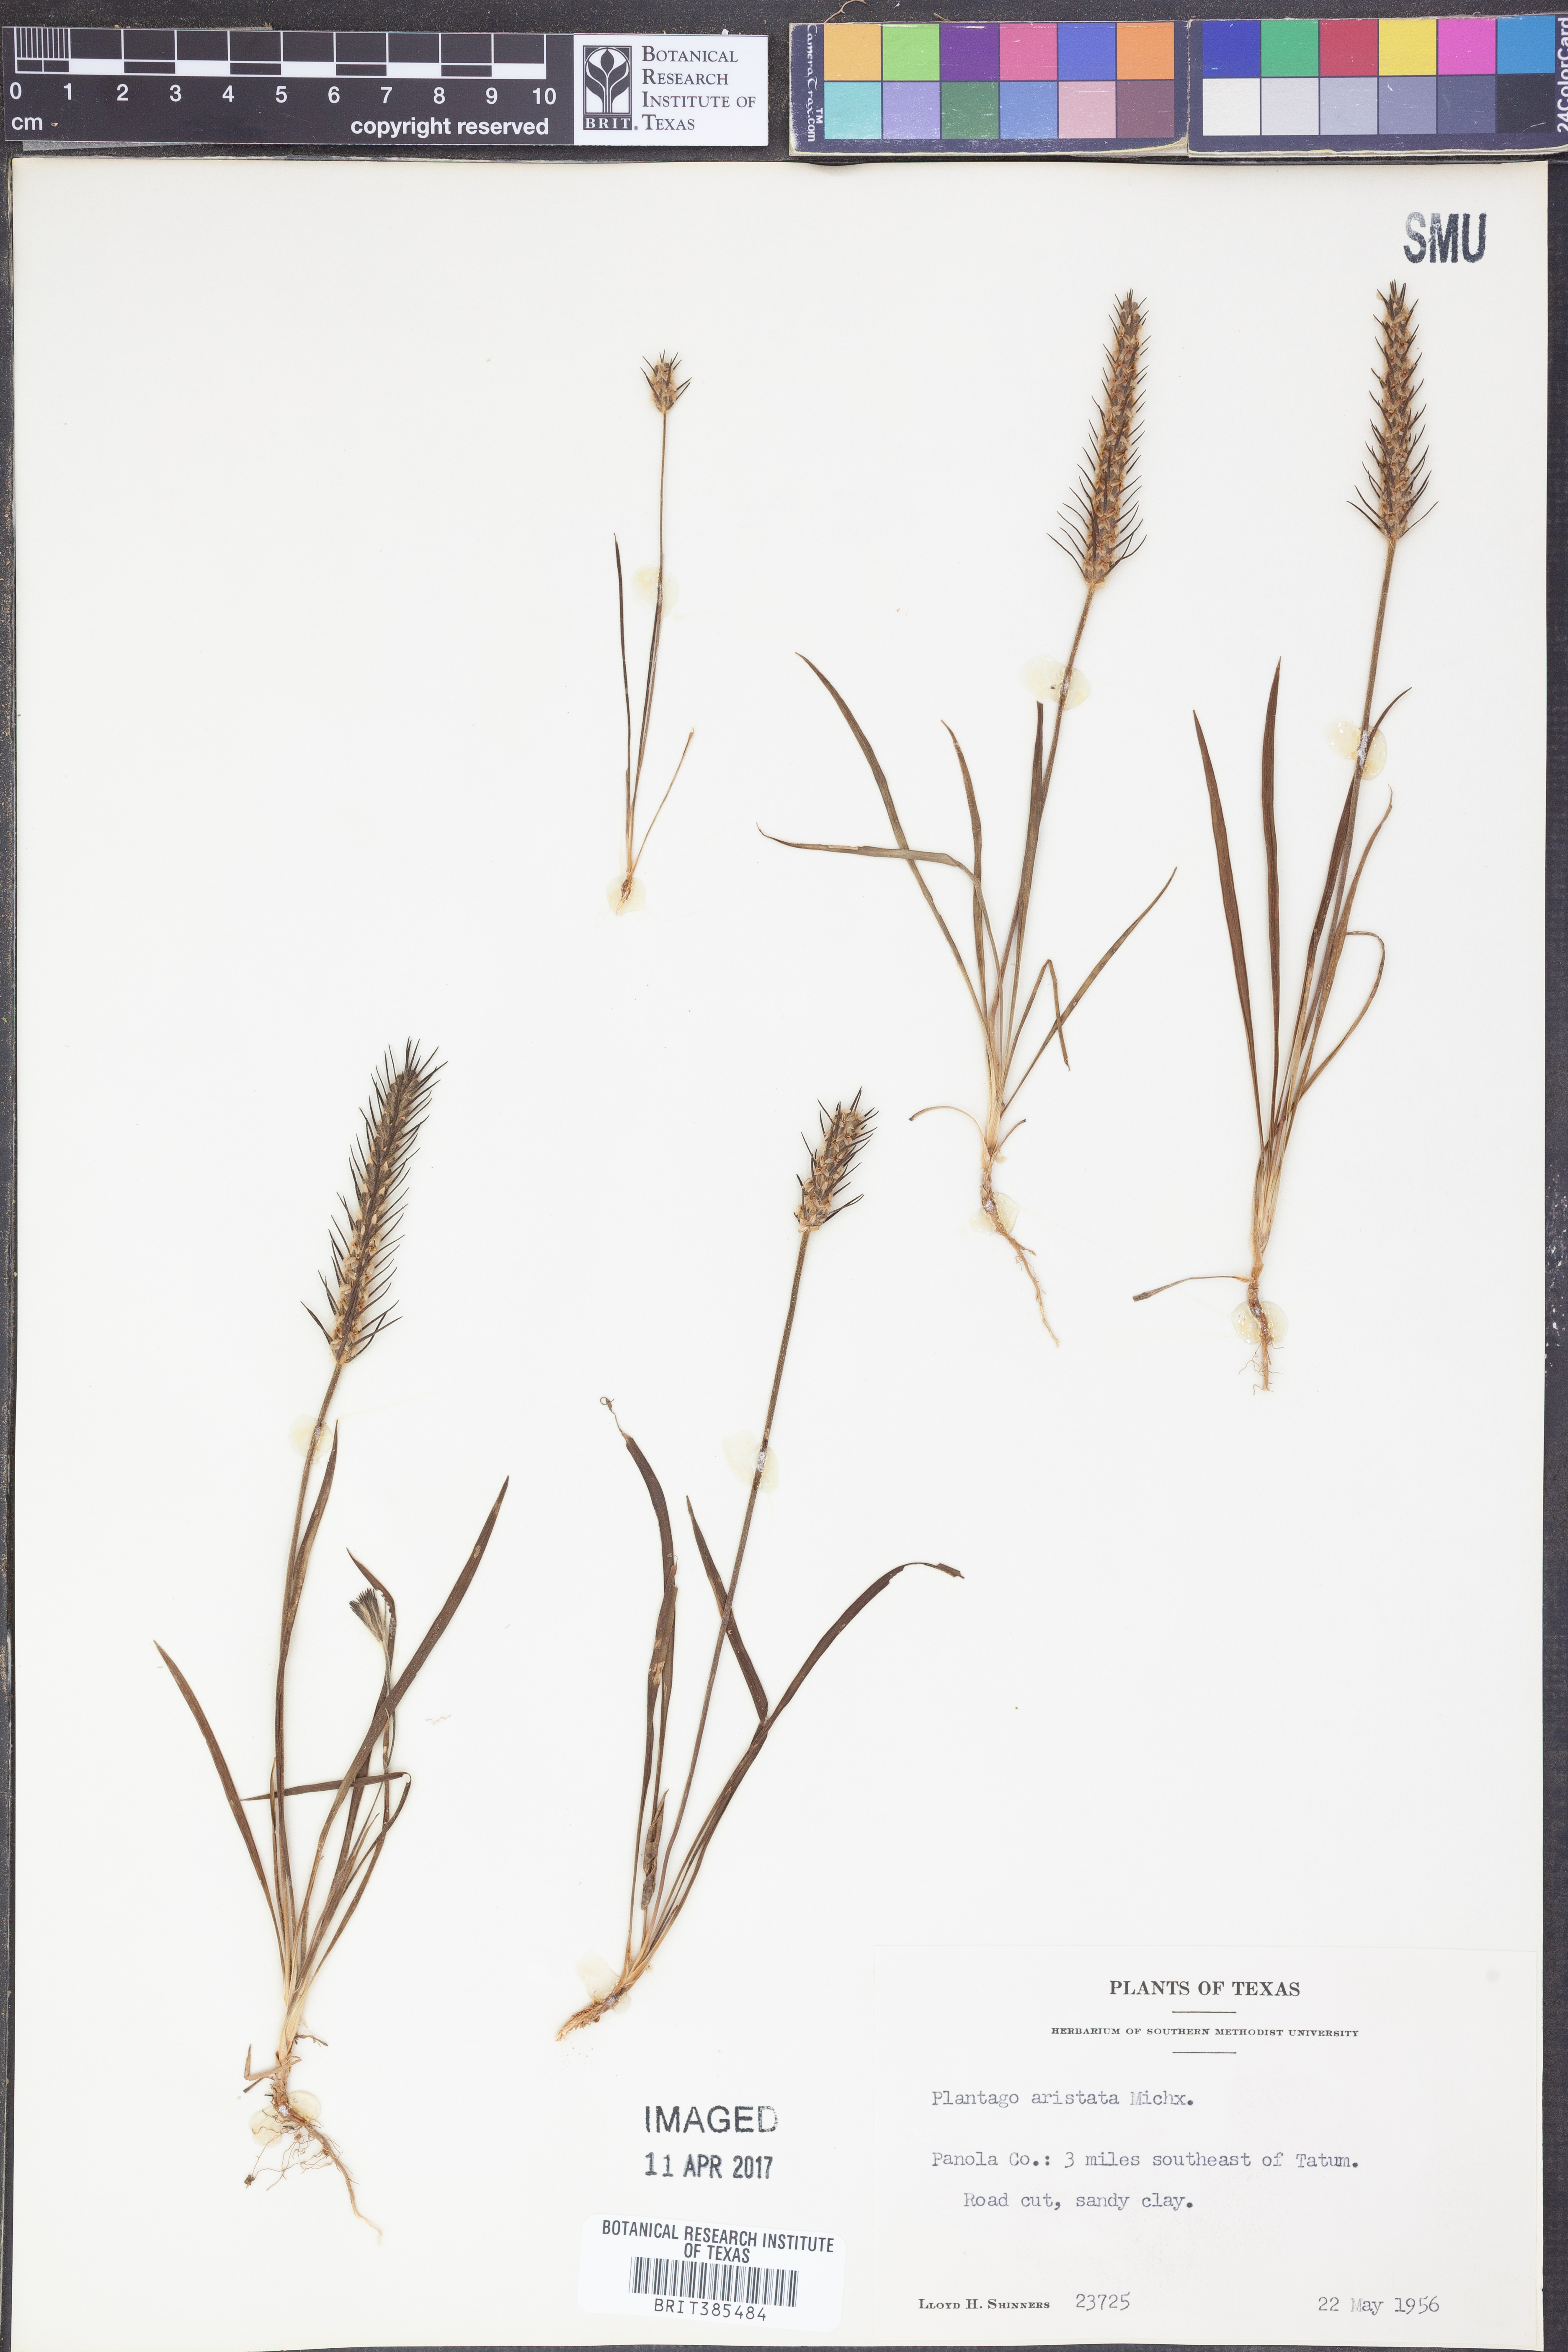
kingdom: Plantae
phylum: Tracheophyta
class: Magnoliopsida
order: Lamiales
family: Plantaginaceae
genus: Plantago
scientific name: Plantago aristata
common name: Bracted plantain
